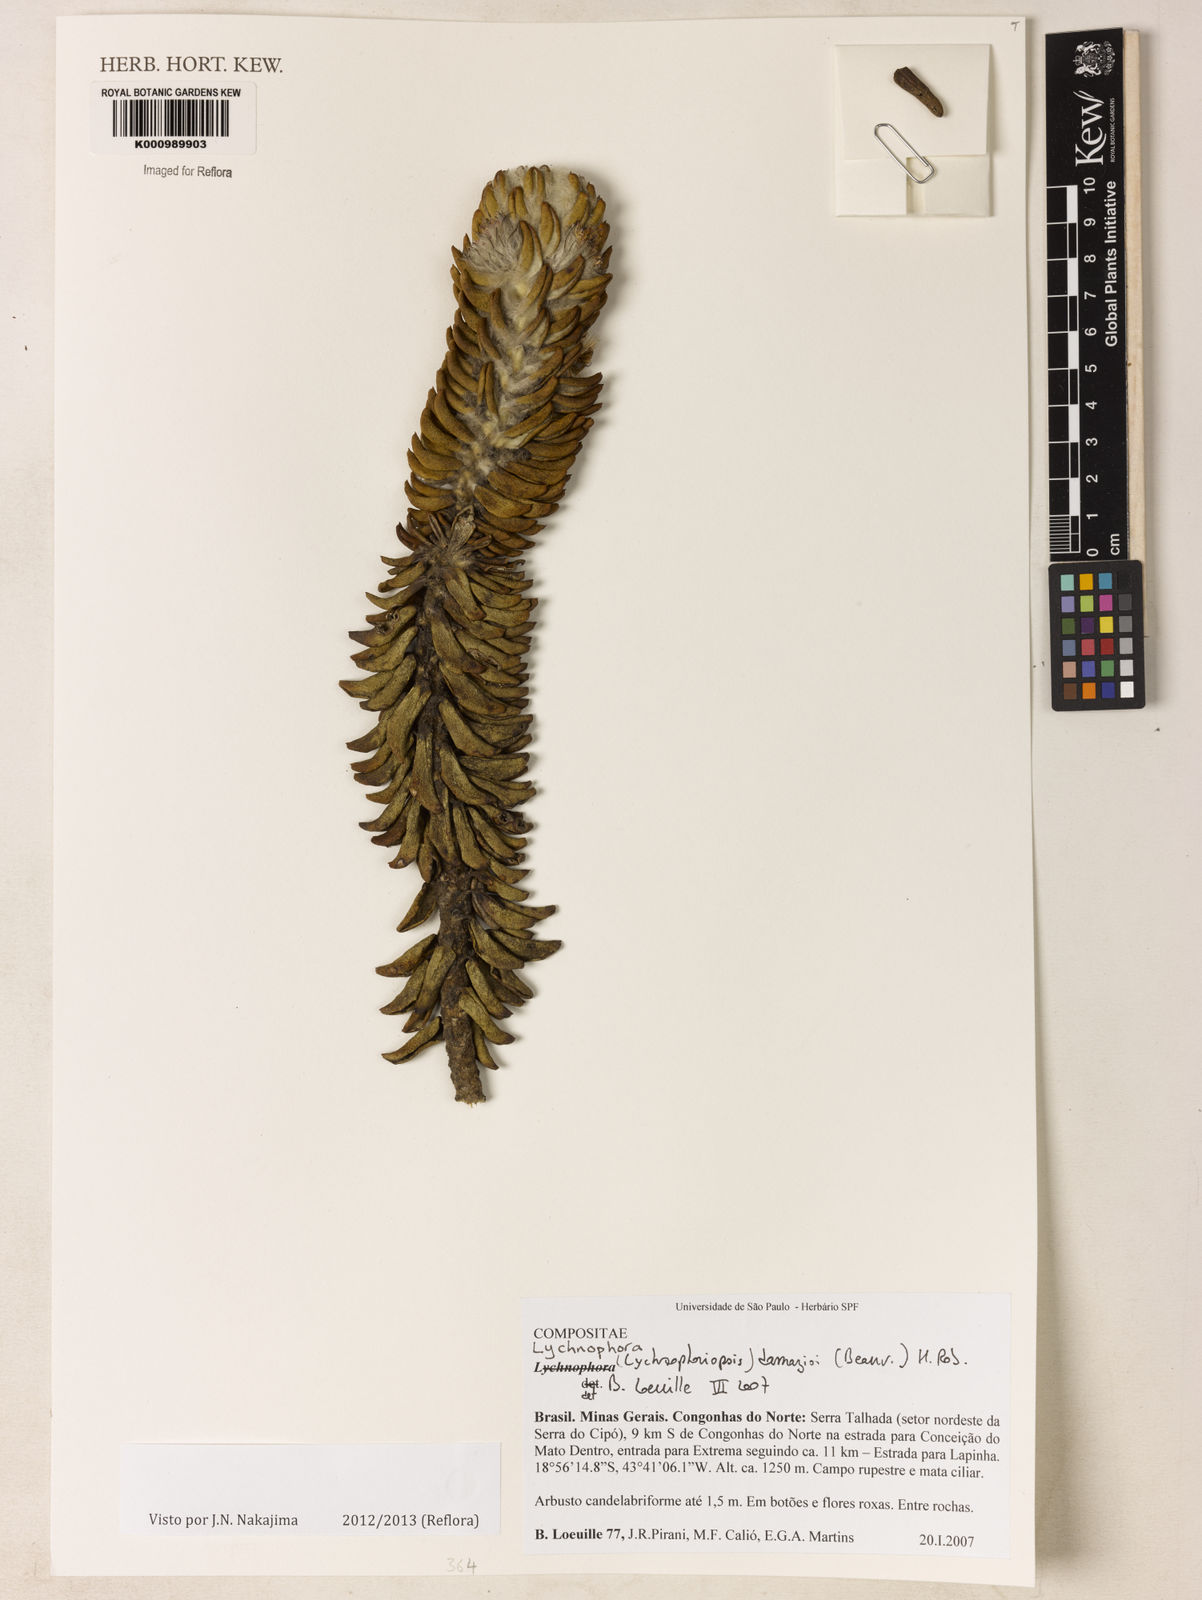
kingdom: Plantae
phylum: Tracheophyta
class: Magnoliopsida
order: Asterales
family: Asteraceae
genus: Lychnophora
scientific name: Lychnophora damazioi
